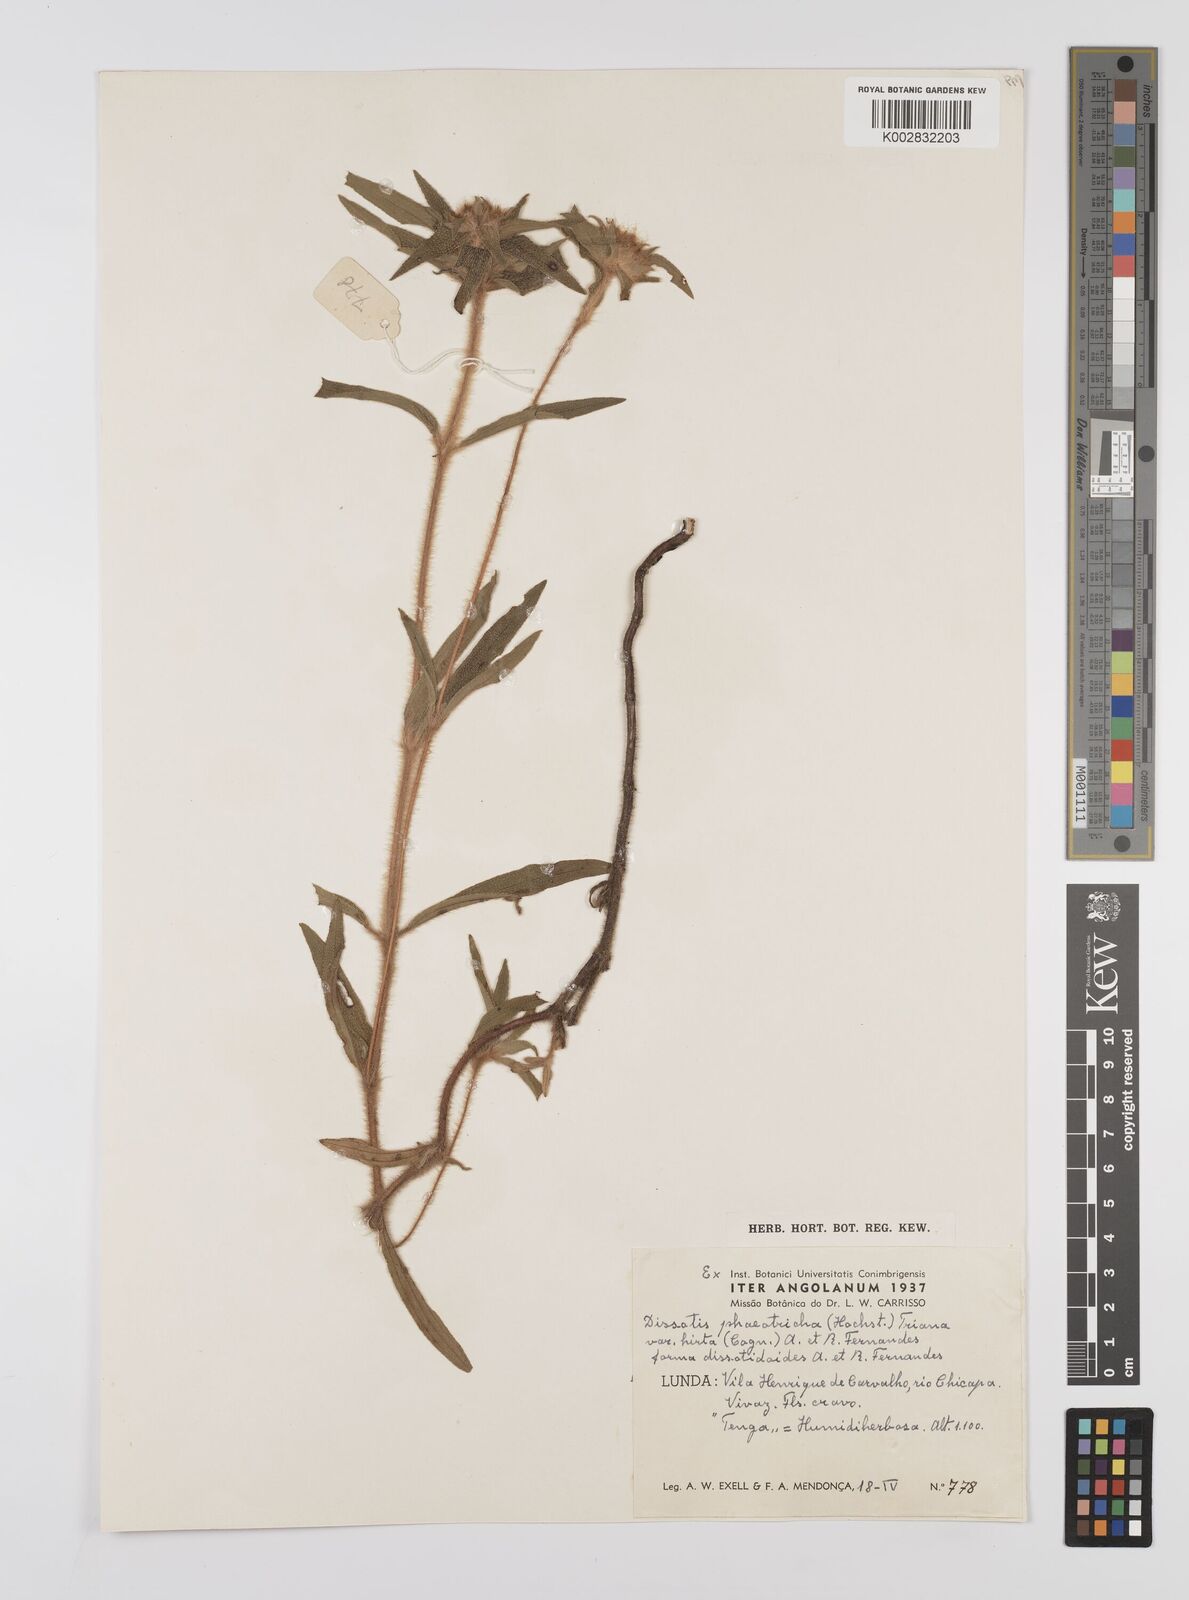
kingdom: Plantae
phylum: Tracheophyta
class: Magnoliopsida
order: Myrtales
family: Melastomataceae
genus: Antherotoma
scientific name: Antherotoma phaeotricha
